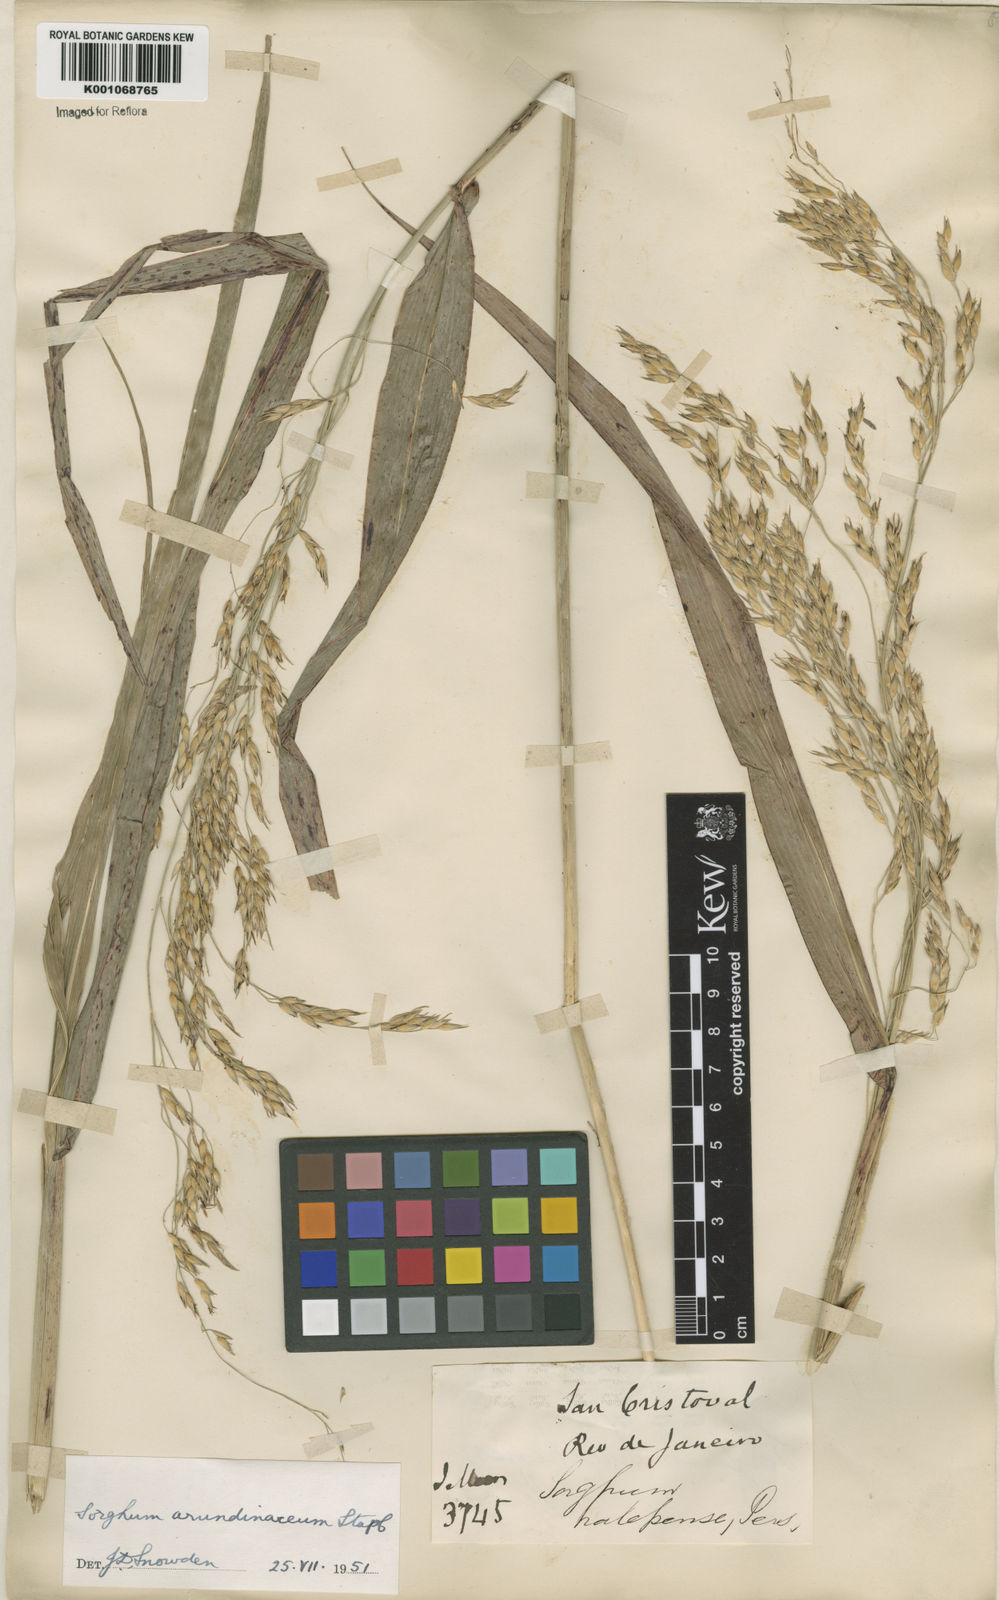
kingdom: Plantae
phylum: Tracheophyta
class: Liliopsida
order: Poales
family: Poaceae
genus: Sorghum
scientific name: Sorghum arundinaceum
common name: Sorghum
